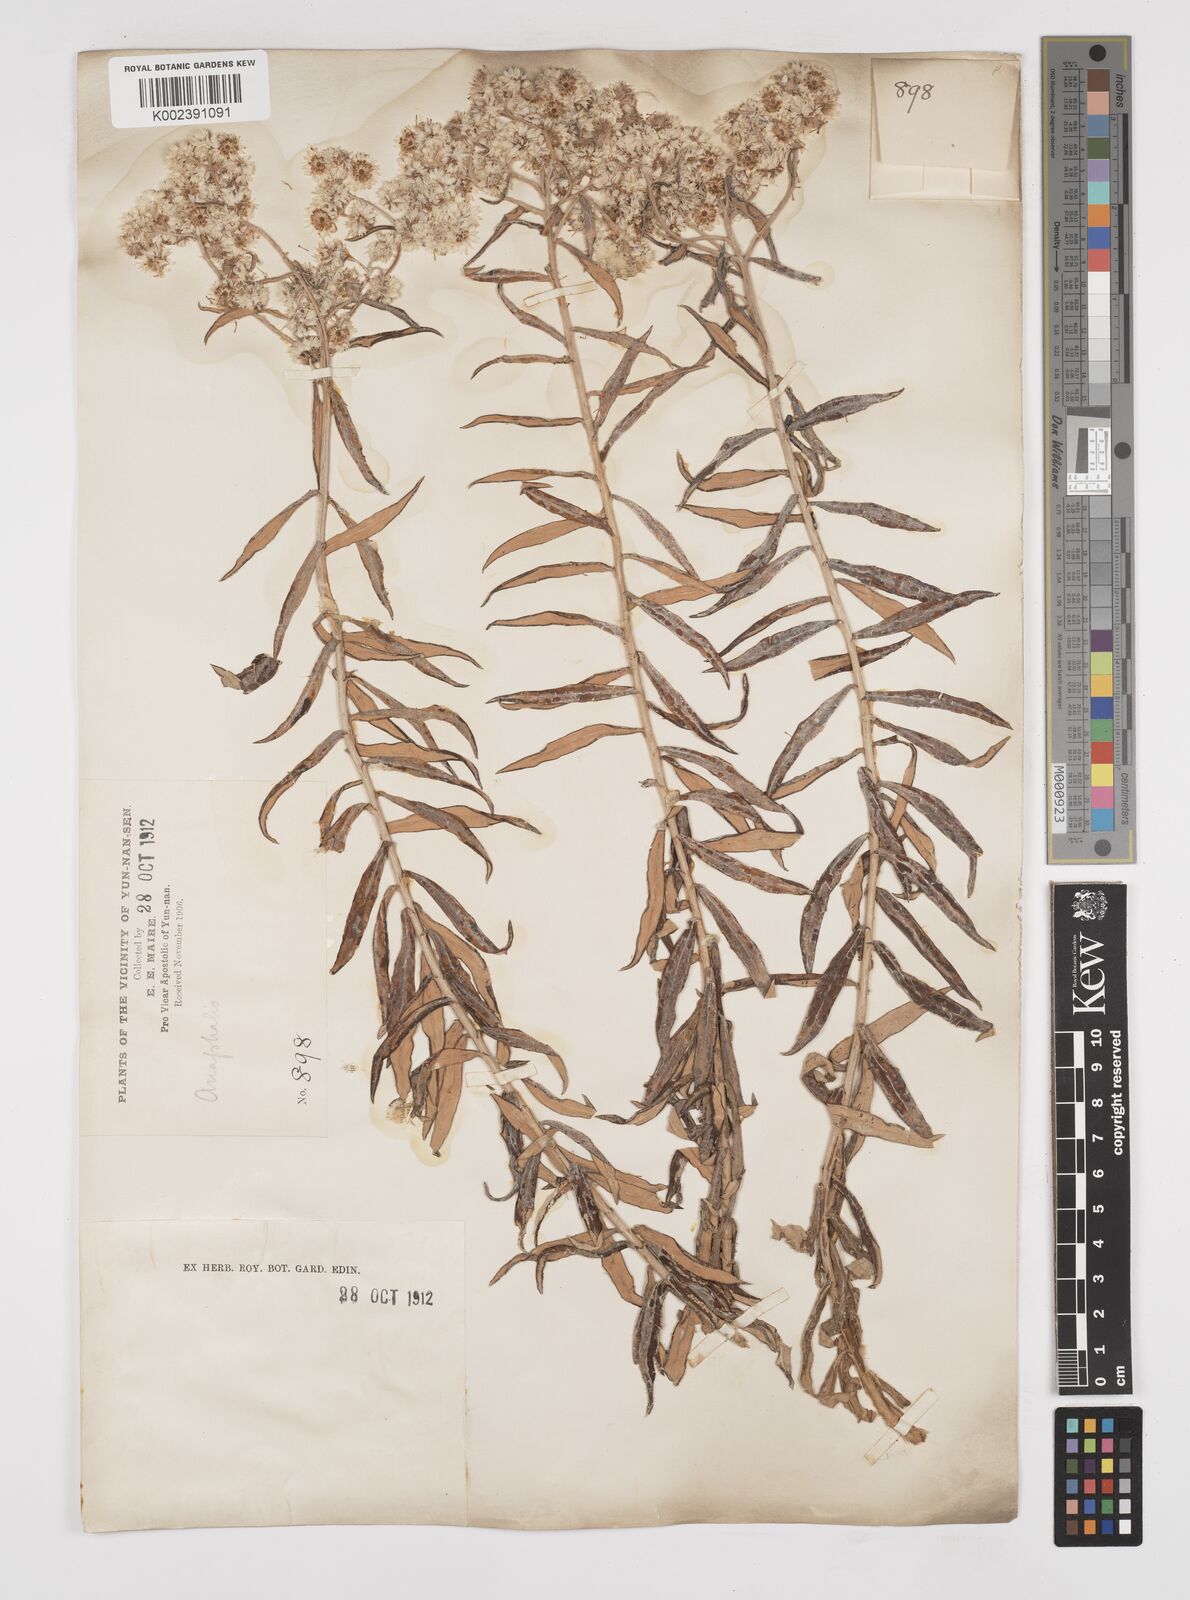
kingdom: Plantae
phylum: Tracheophyta
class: Magnoliopsida
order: Asterales
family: Asteraceae
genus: Anaphalis
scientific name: Anaphalis margaritacea
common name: Pearly everlasting
